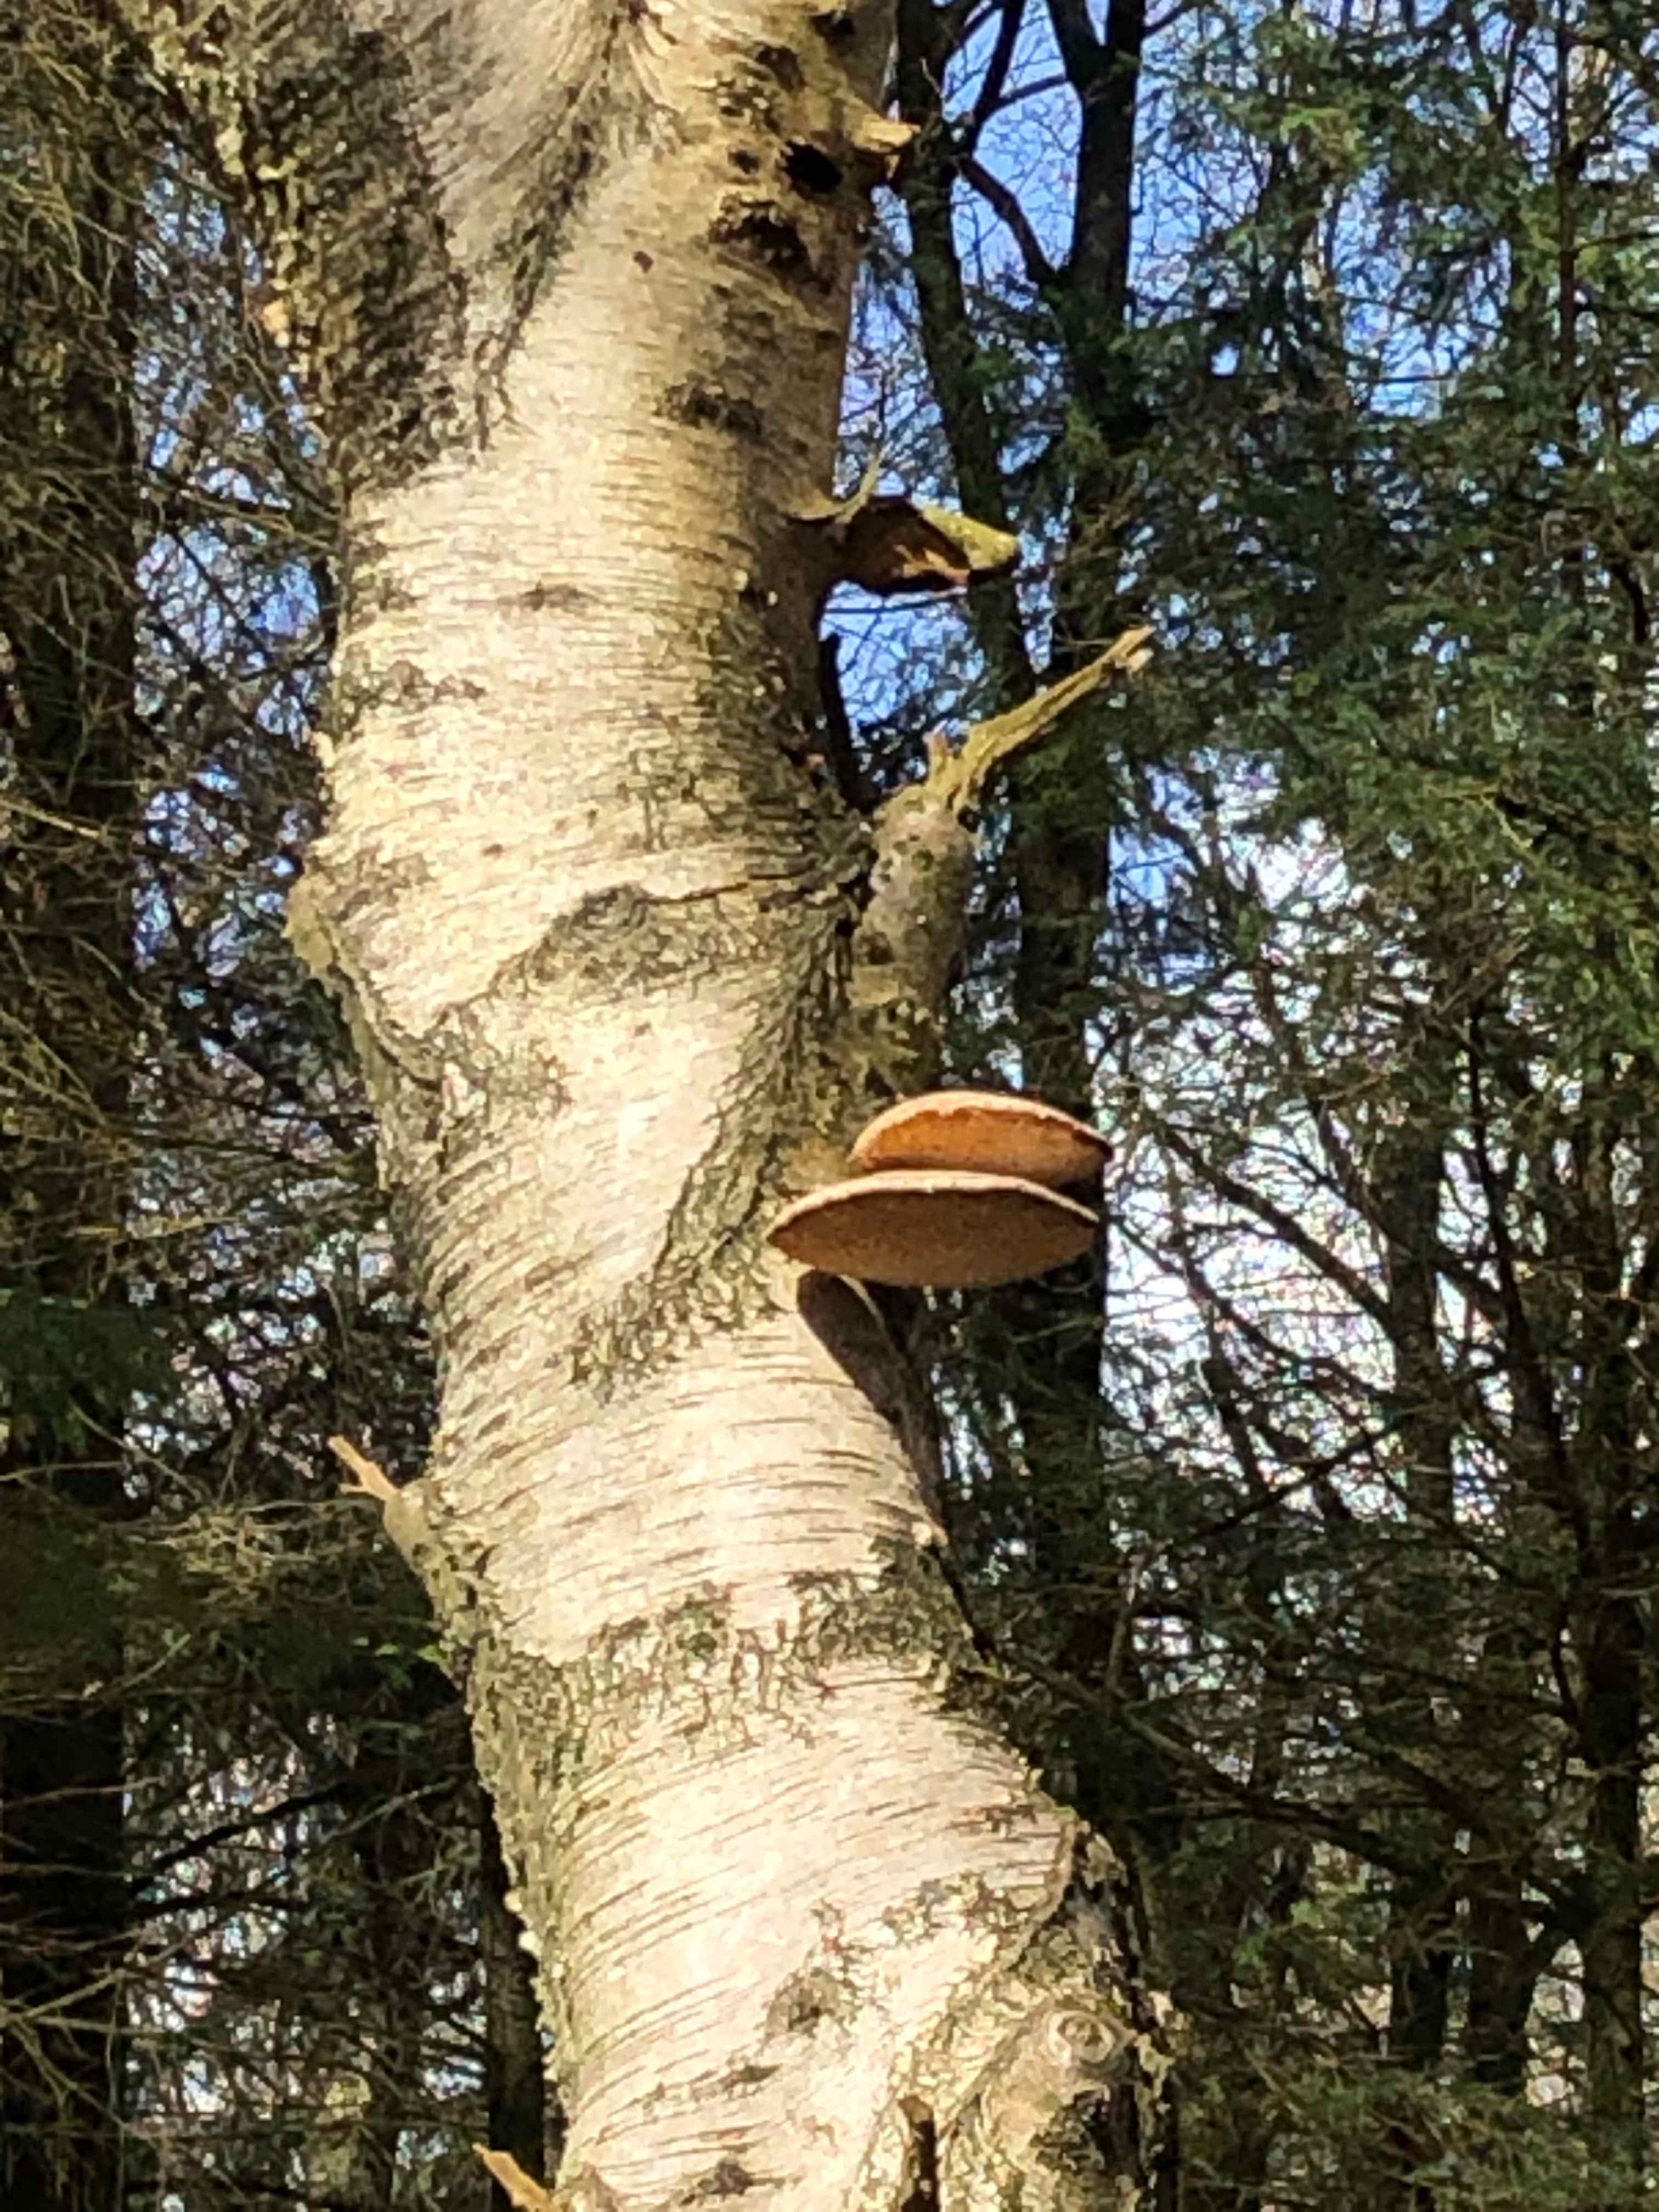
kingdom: Fungi
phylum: Basidiomycota
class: Agaricomycetes
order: Polyporales
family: Fomitopsidaceae
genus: Fomitopsis
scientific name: Fomitopsis betulina
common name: birkeporesvamp
